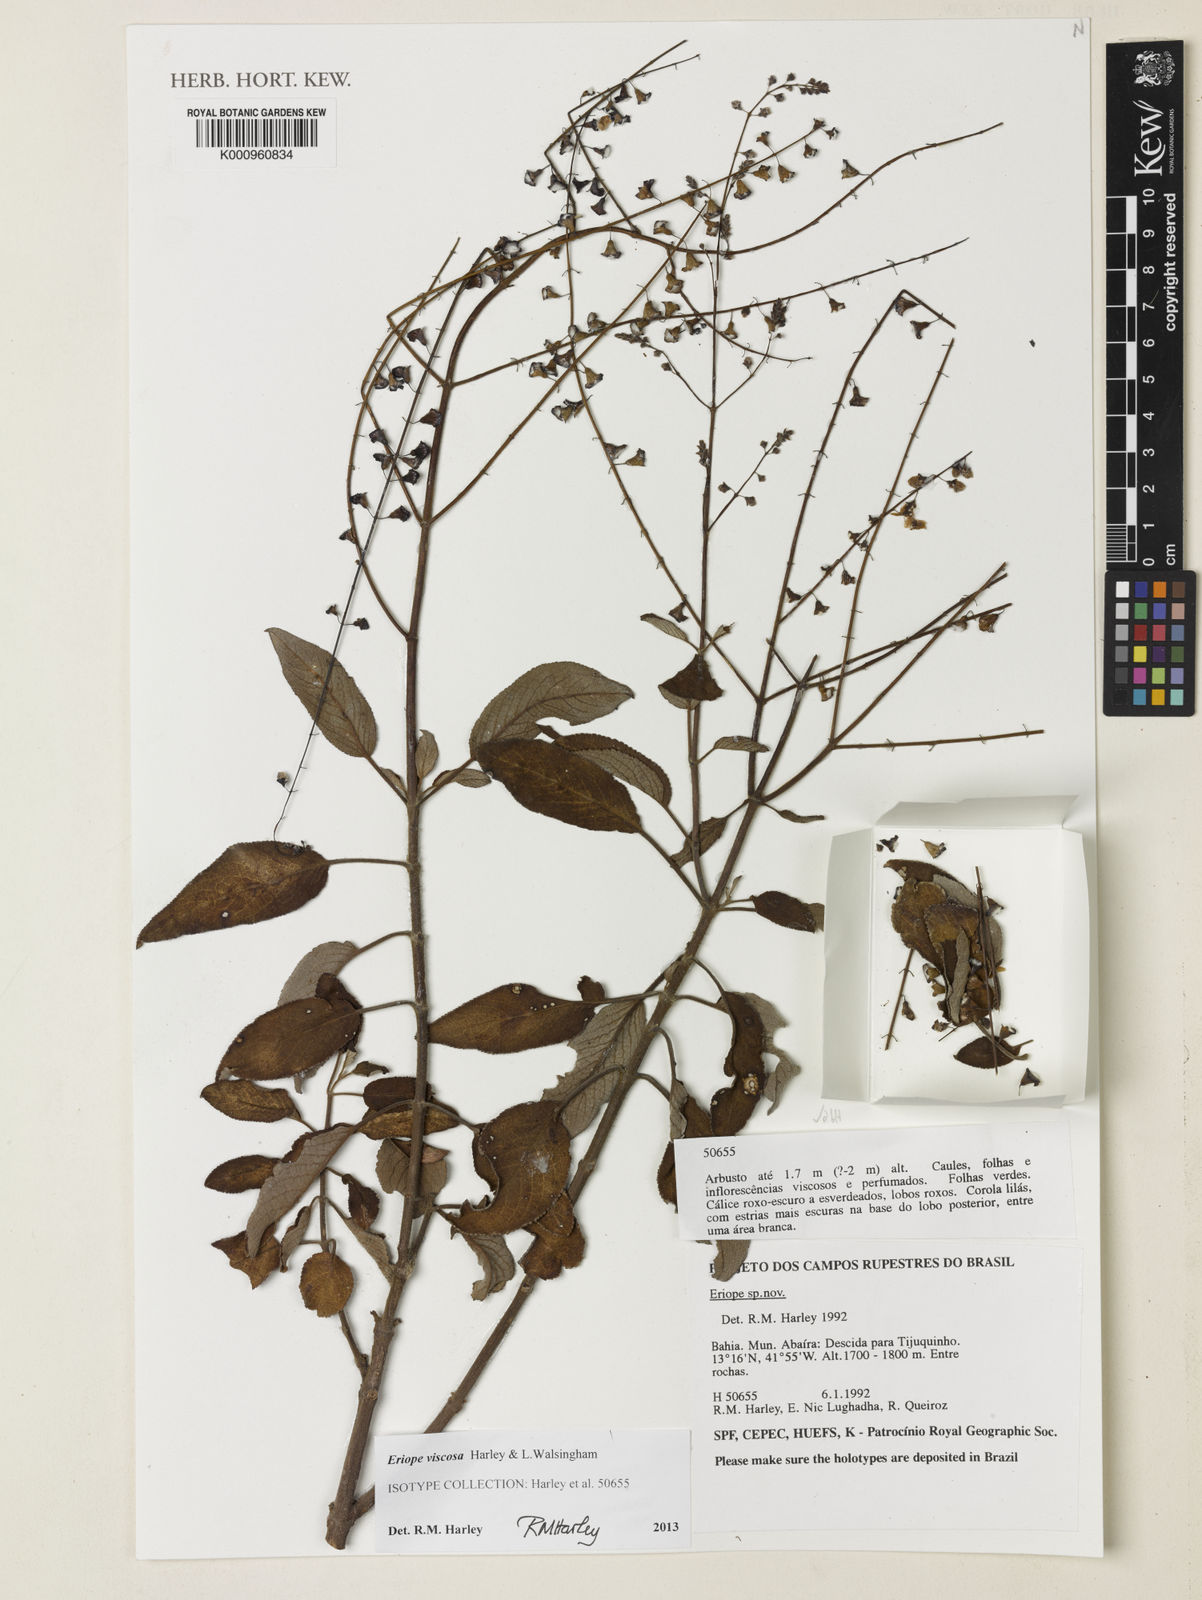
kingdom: Plantae
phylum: Tracheophyta
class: Magnoliopsida
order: Lamiales
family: Lamiaceae
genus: Eriope
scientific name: Eriope viscosa
